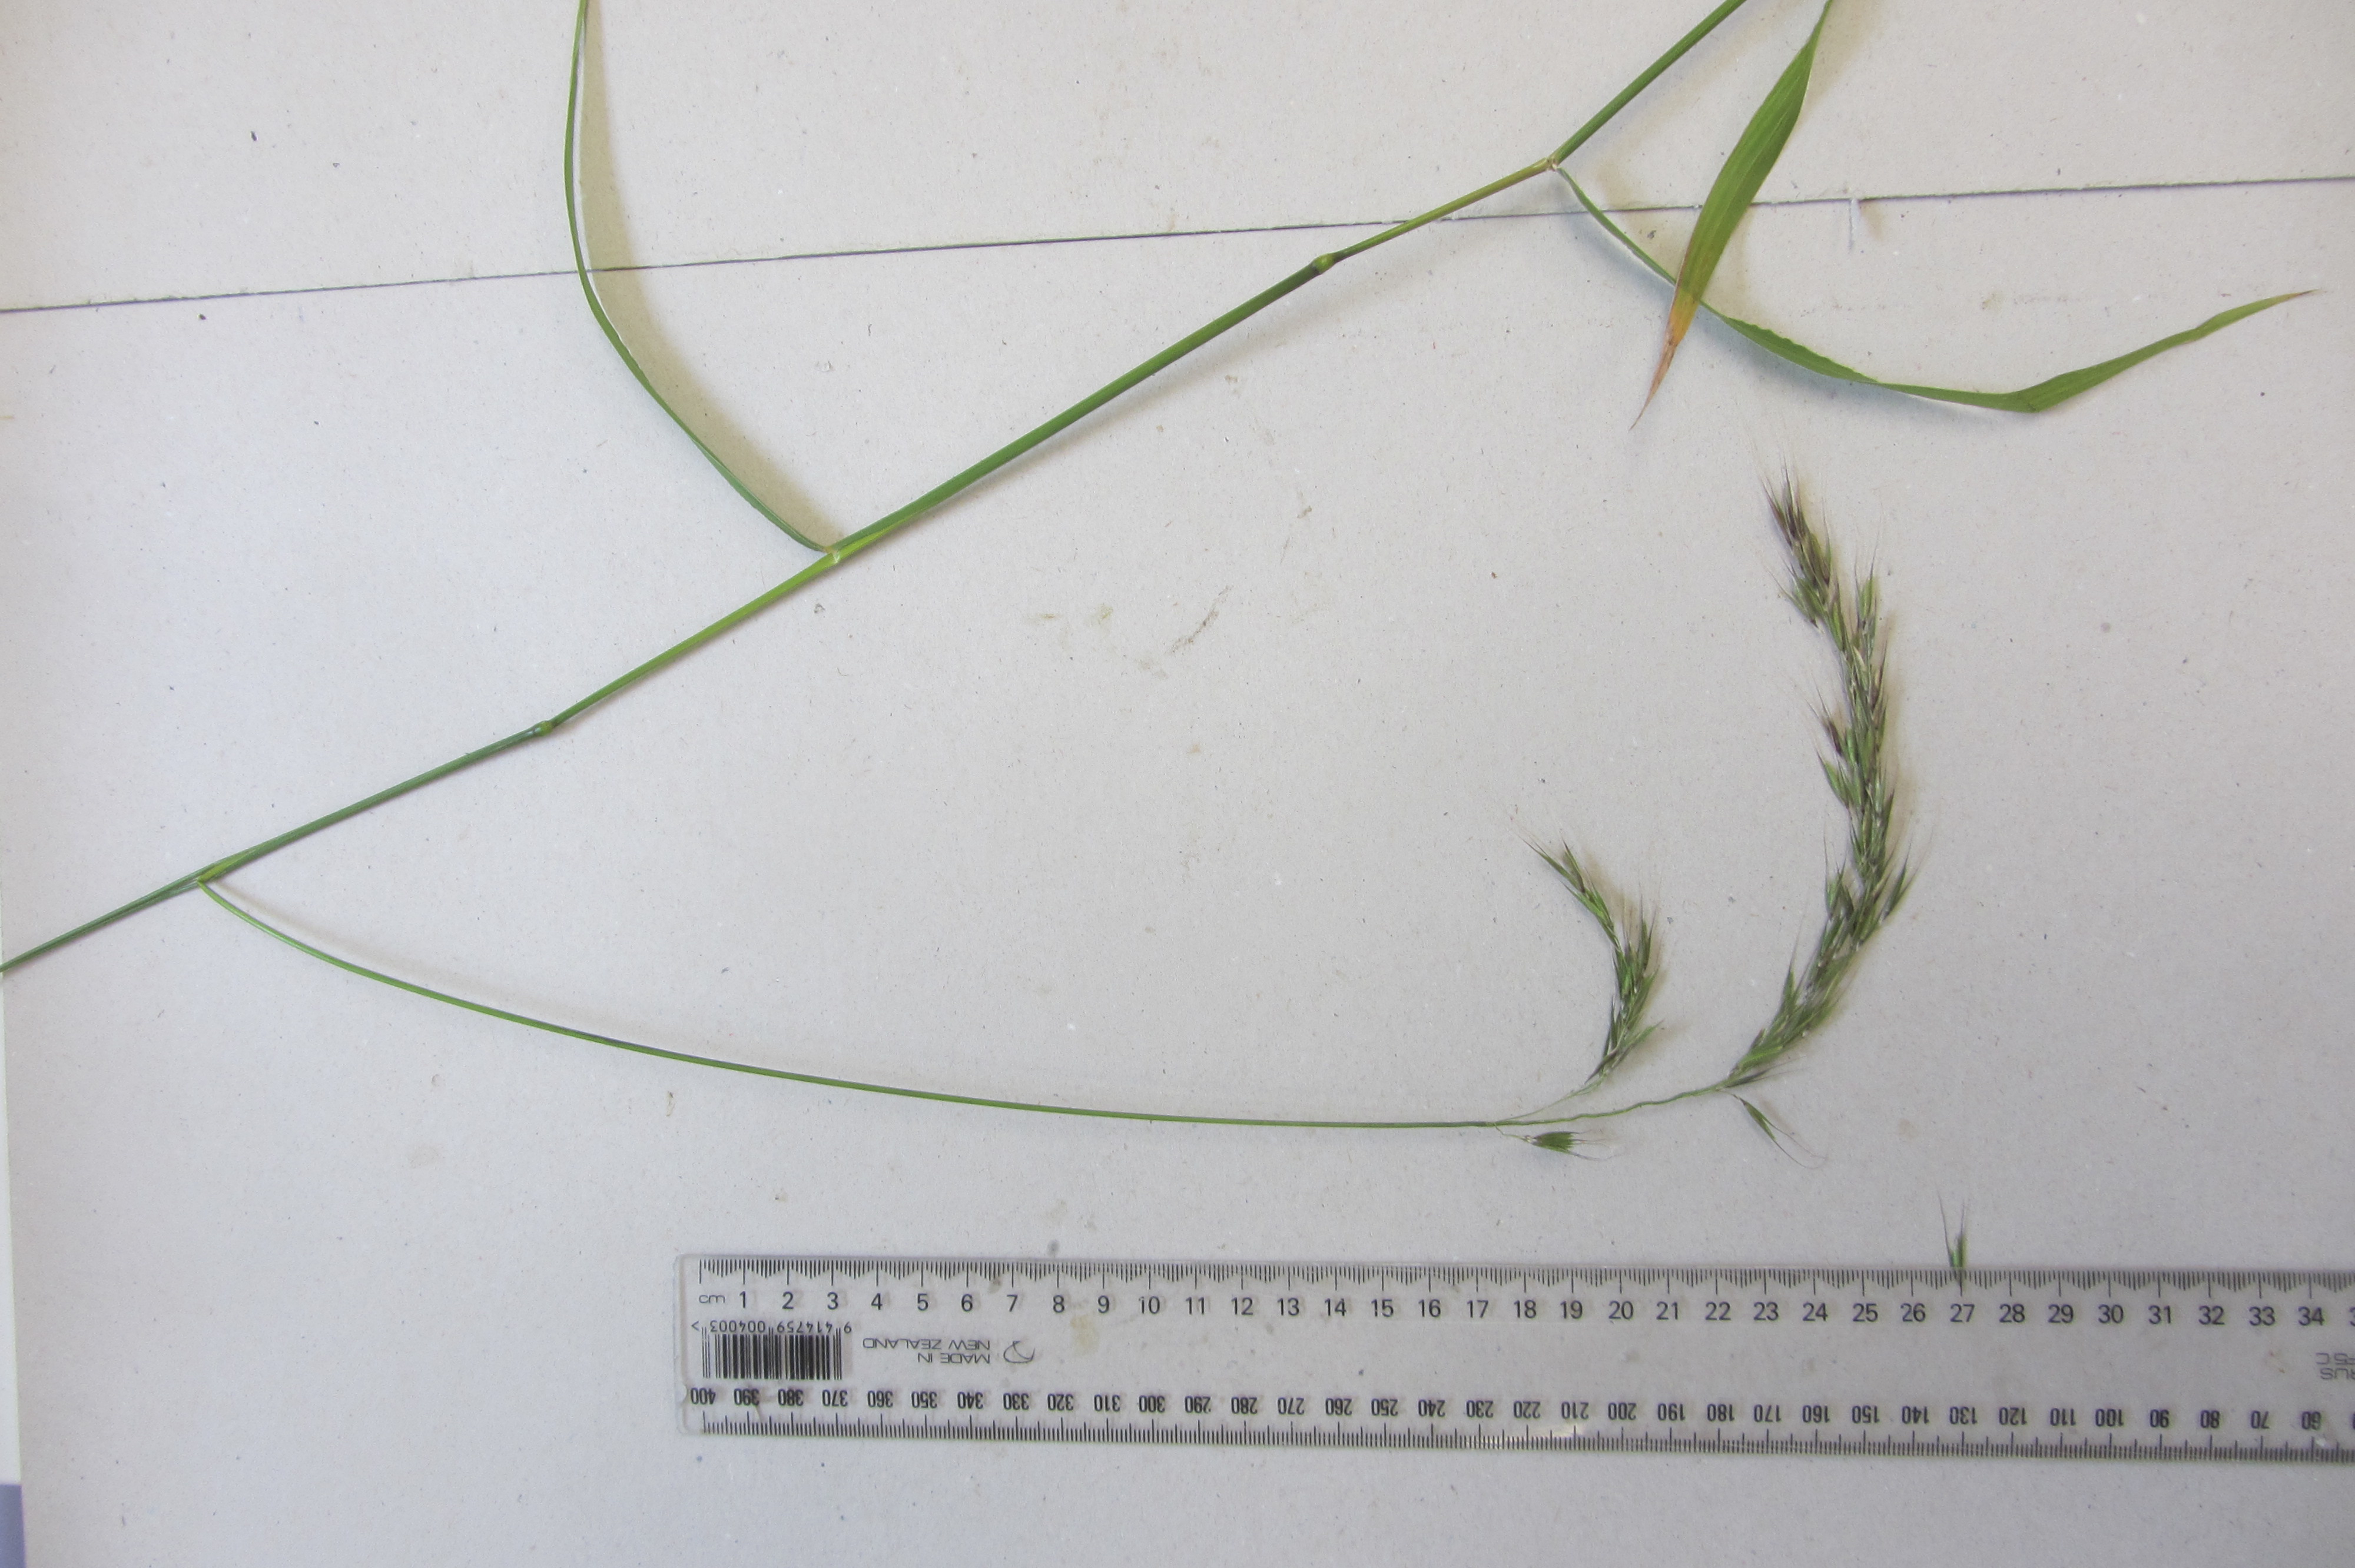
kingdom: Plantae
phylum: Tracheophyta
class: Liliopsida
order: Poales
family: Poaceae
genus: Microlaena
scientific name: Microlaena
